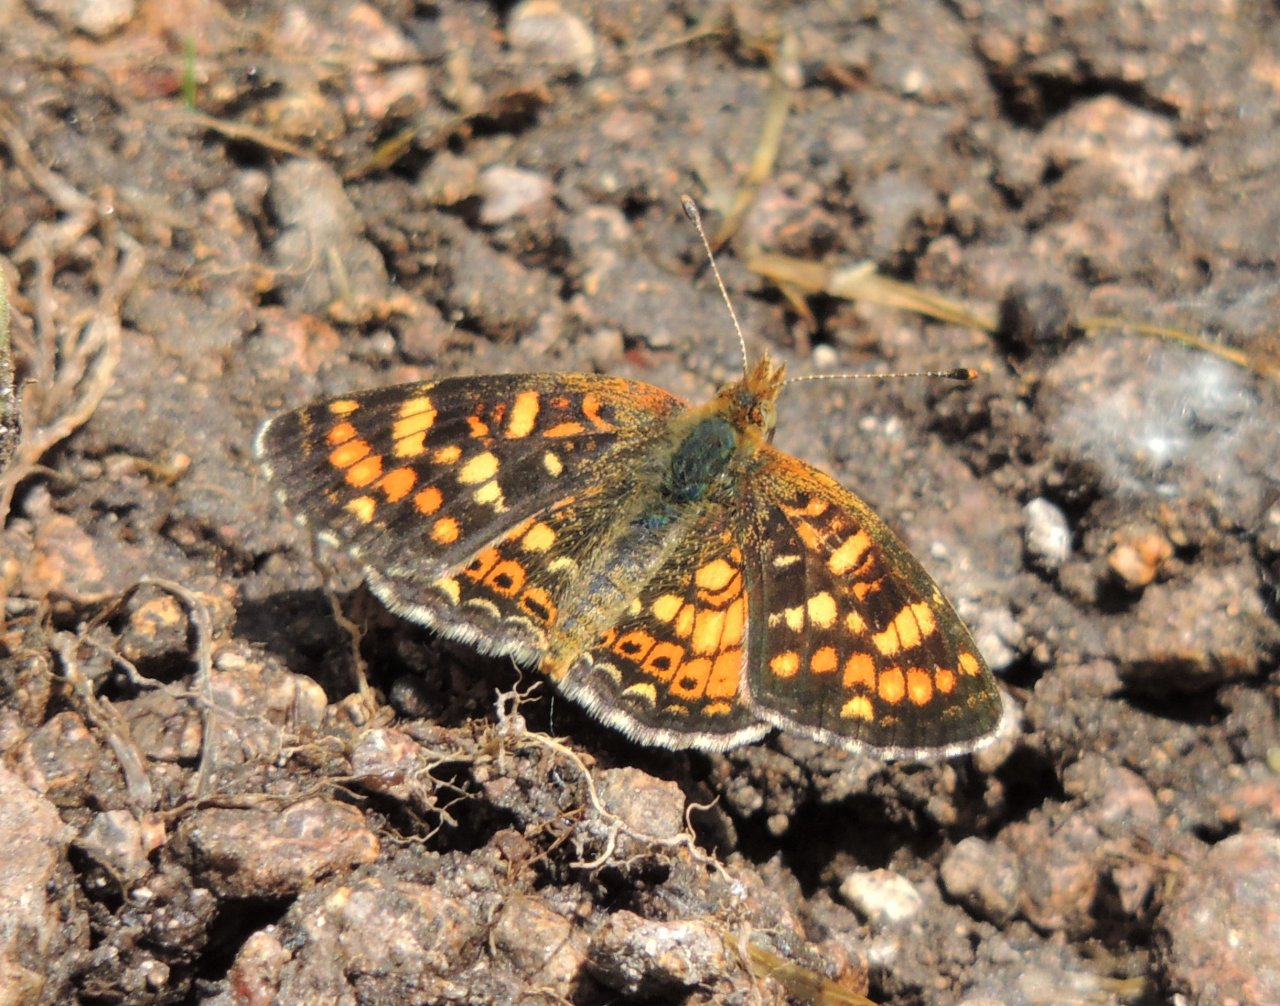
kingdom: Animalia
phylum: Arthropoda
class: Insecta
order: Lepidoptera
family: Nymphalidae
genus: Phyciodes
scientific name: Phyciodes tharos
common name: Field Crescent
